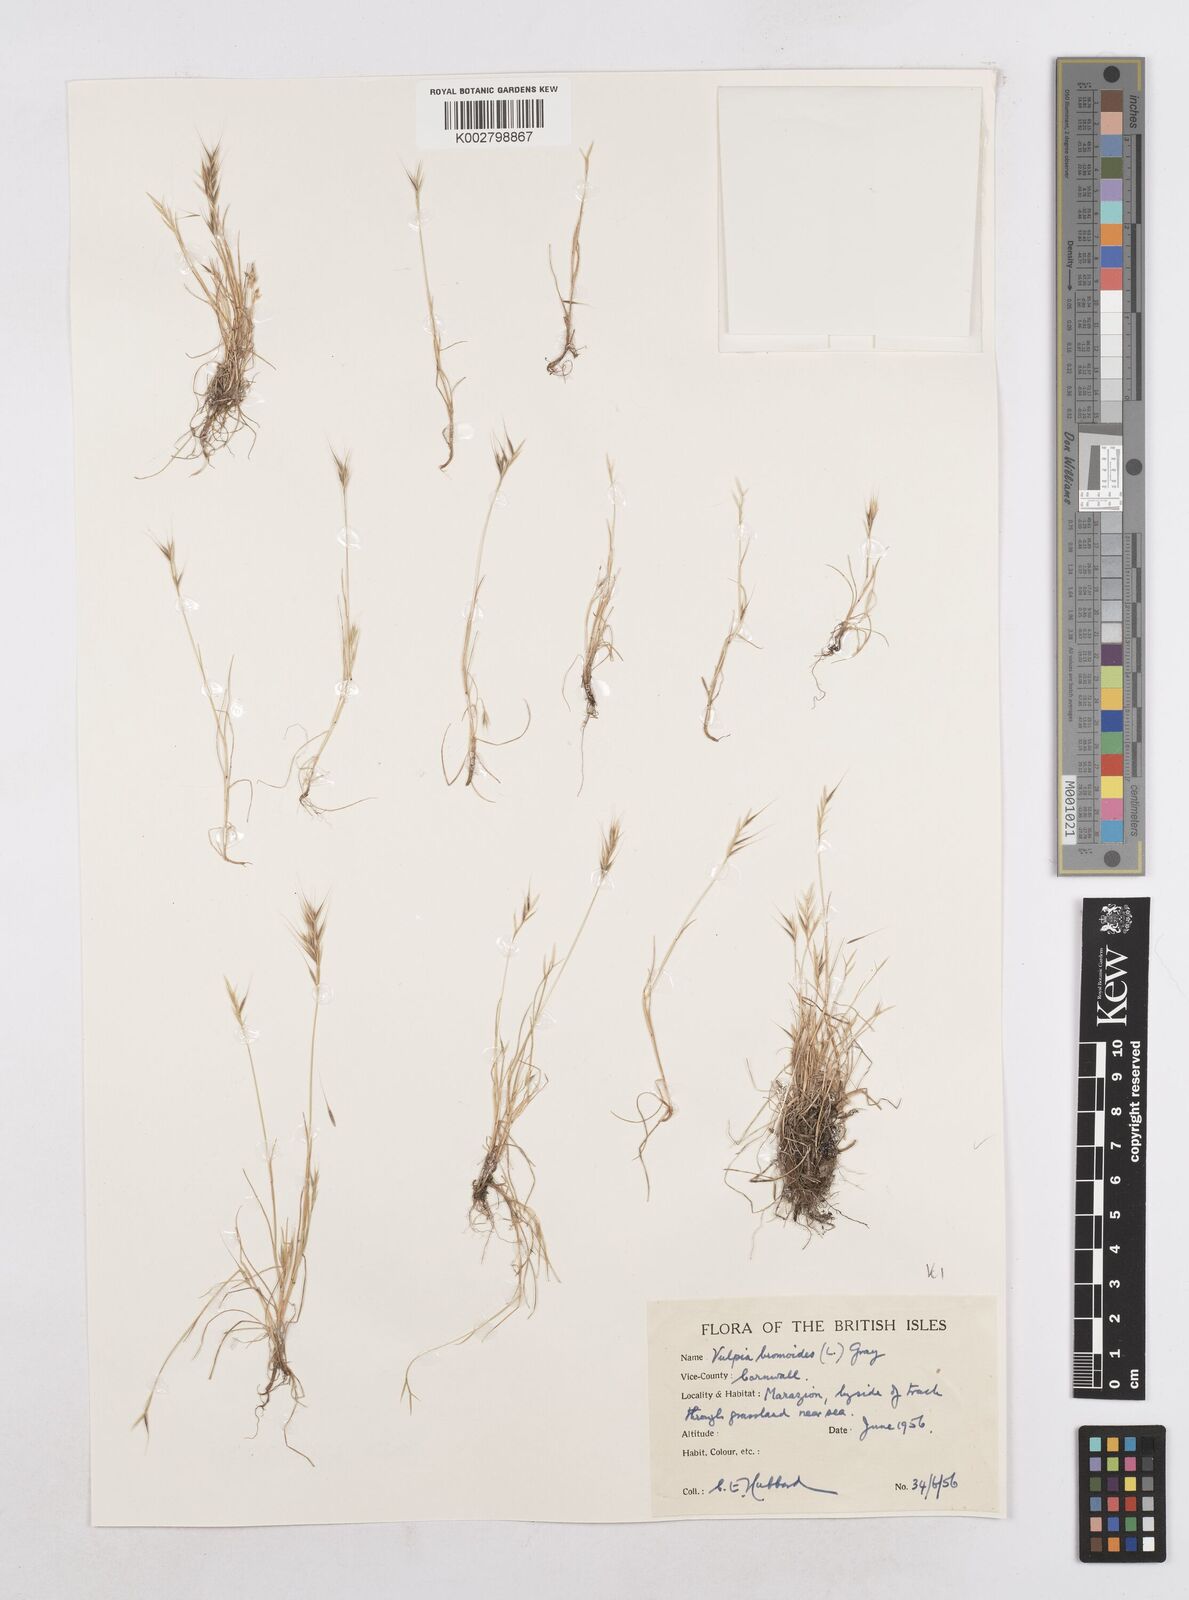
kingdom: Plantae
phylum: Tracheophyta
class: Liliopsida
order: Poales
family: Poaceae
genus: Festuca
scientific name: Festuca bromoides
